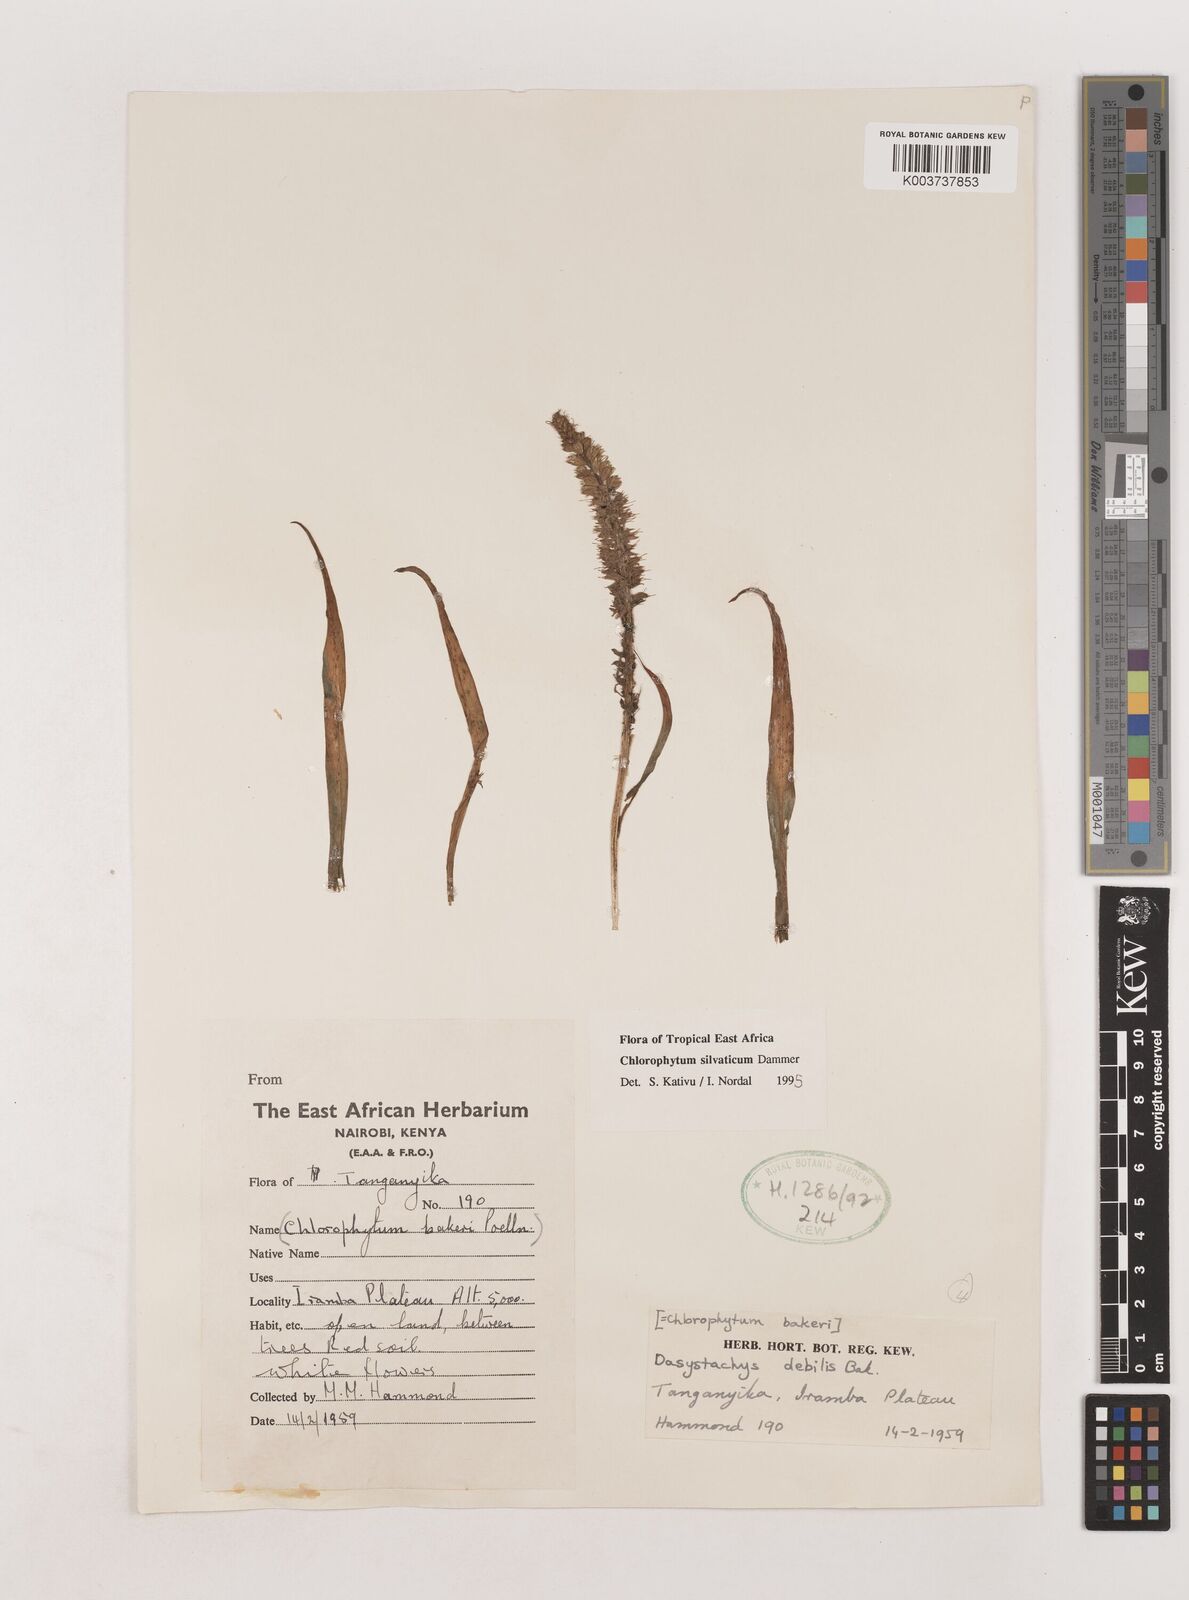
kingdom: Plantae
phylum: Tracheophyta
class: Liliopsida
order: Asparagales
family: Asparagaceae
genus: Chlorophytum
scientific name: Chlorophytum africanum
